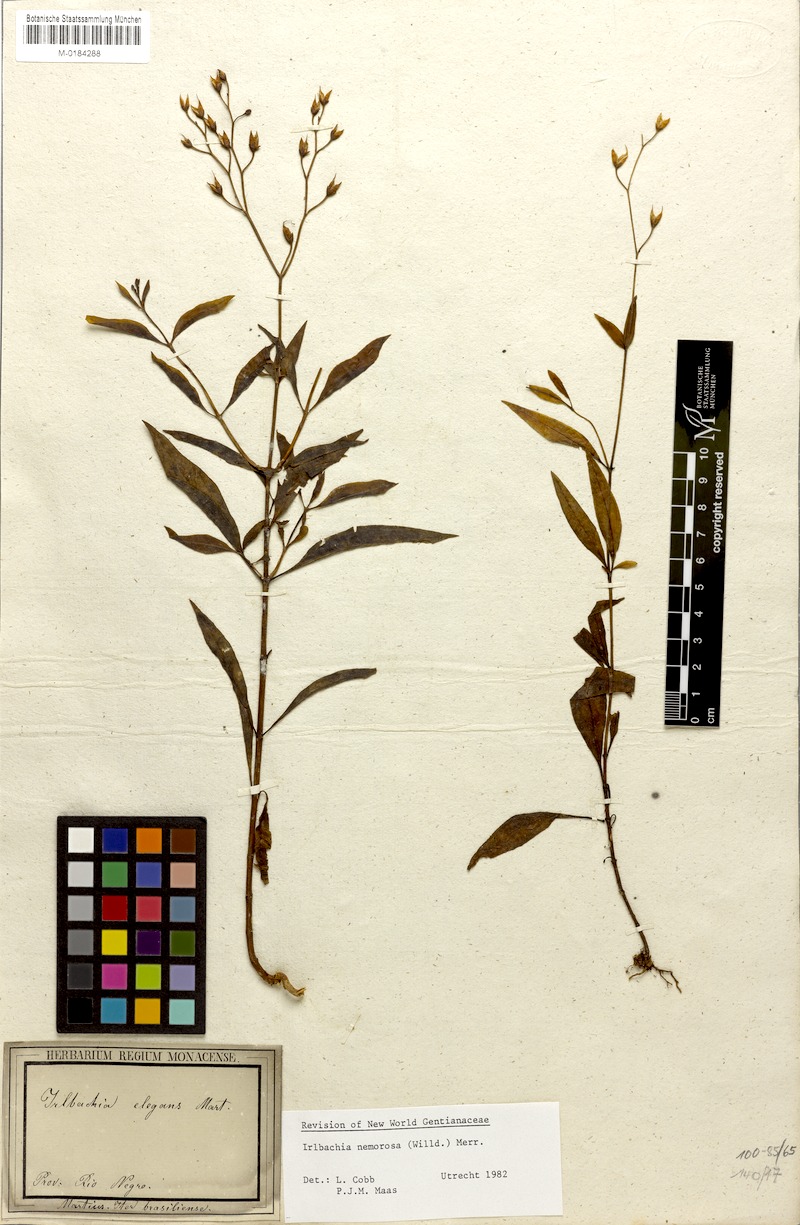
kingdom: Plantae
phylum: Tracheophyta
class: Magnoliopsida
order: Gentianales
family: Gentianaceae
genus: Irlbachia
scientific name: Irlbachia nemorosa
